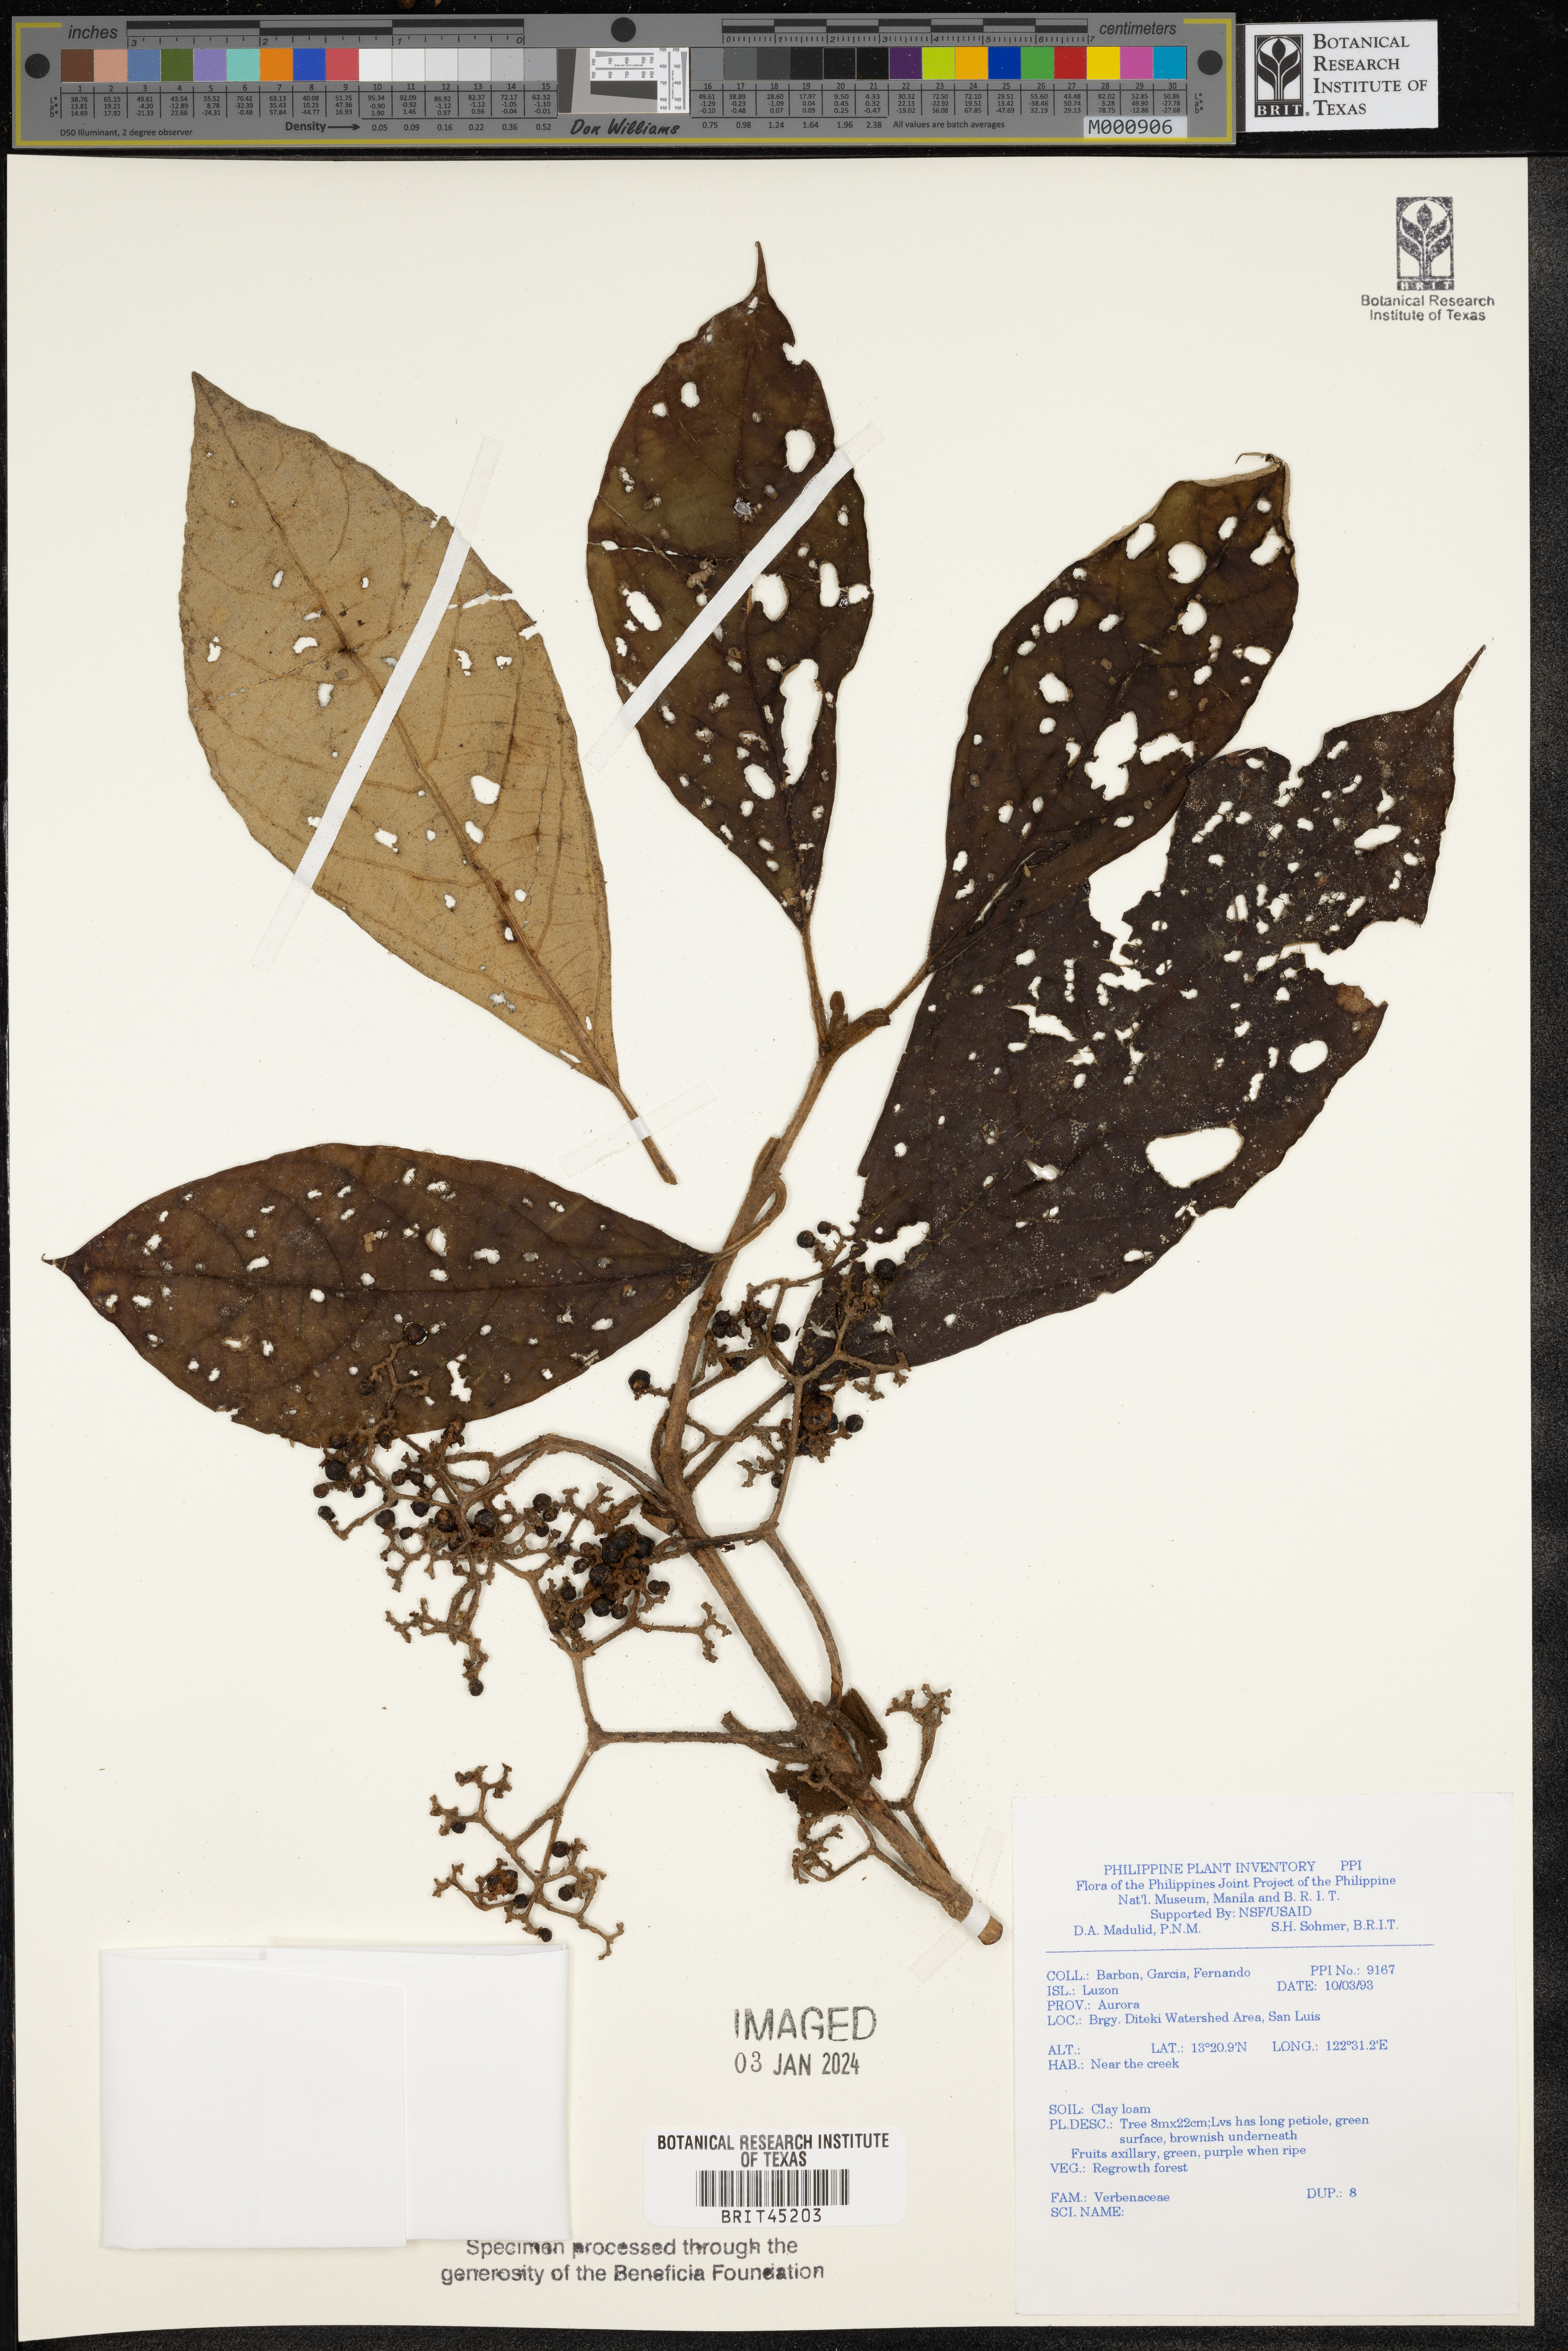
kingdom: Plantae
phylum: Tracheophyta
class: Magnoliopsida
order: Lamiales
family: Verbenaceae
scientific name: Verbenaceae
